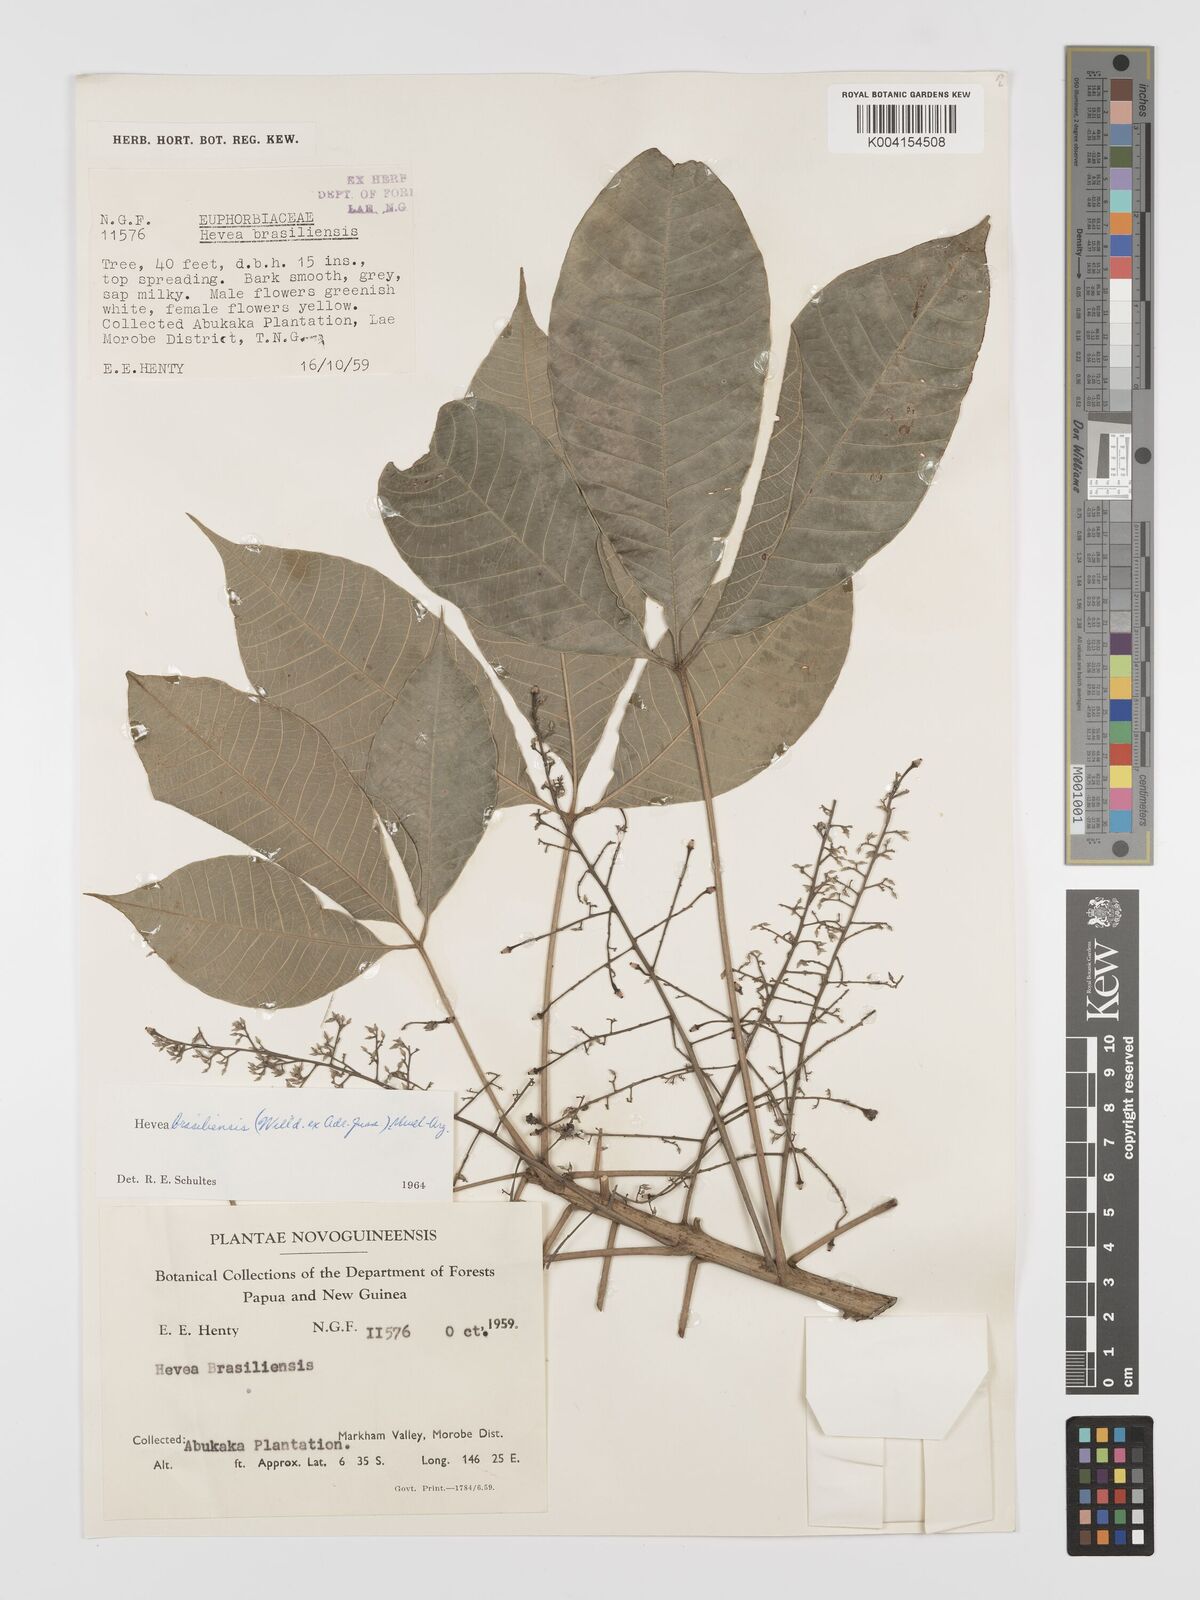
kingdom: Plantae
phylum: Tracheophyta
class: Magnoliopsida
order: Malpighiales
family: Euphorbiaceae
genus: Hevea
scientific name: Hevea brasiliensis
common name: Natural rubber
